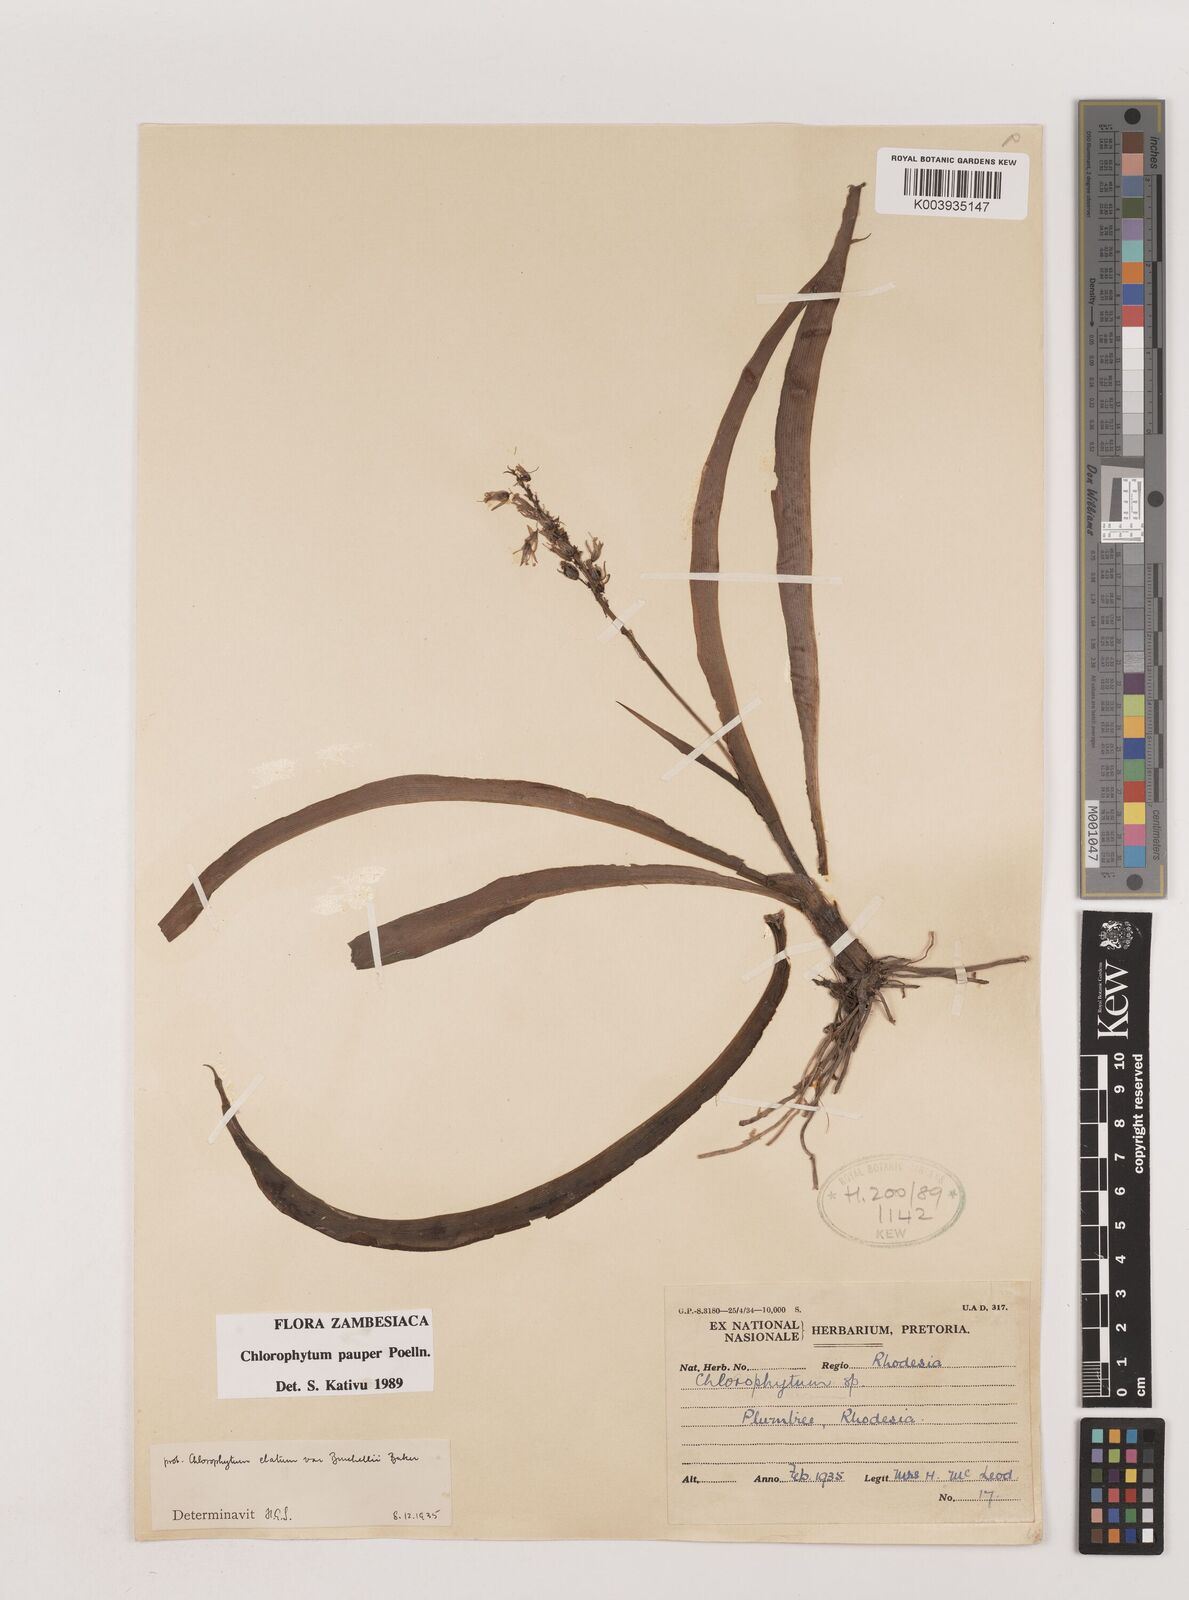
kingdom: Plantae
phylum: Tracheophyta
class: Liliopsida
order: Asparagales
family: Asparagaceae
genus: Chlorophytum
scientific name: Chlorophytum pauper
